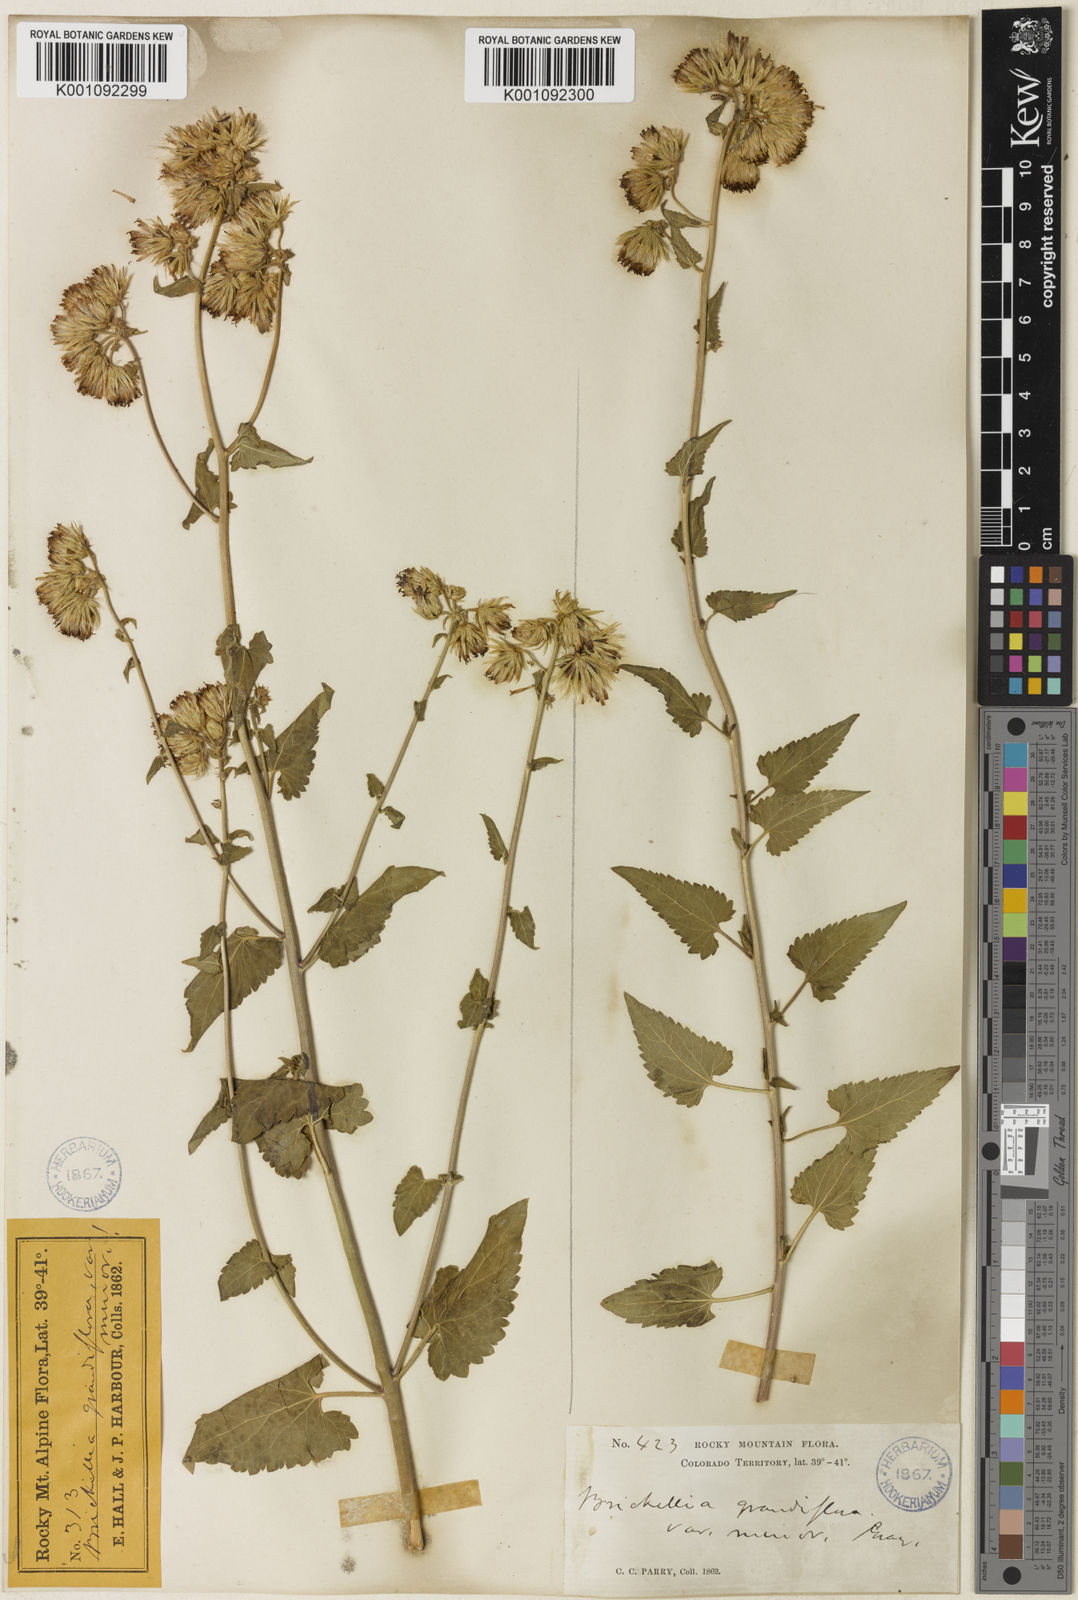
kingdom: Plantae
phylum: Tracheophyta
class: Magnoliopsida
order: Asterales
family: Asteraceae
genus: Brickellia
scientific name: Brickellia grandiflora
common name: Large-flowered brickellia
